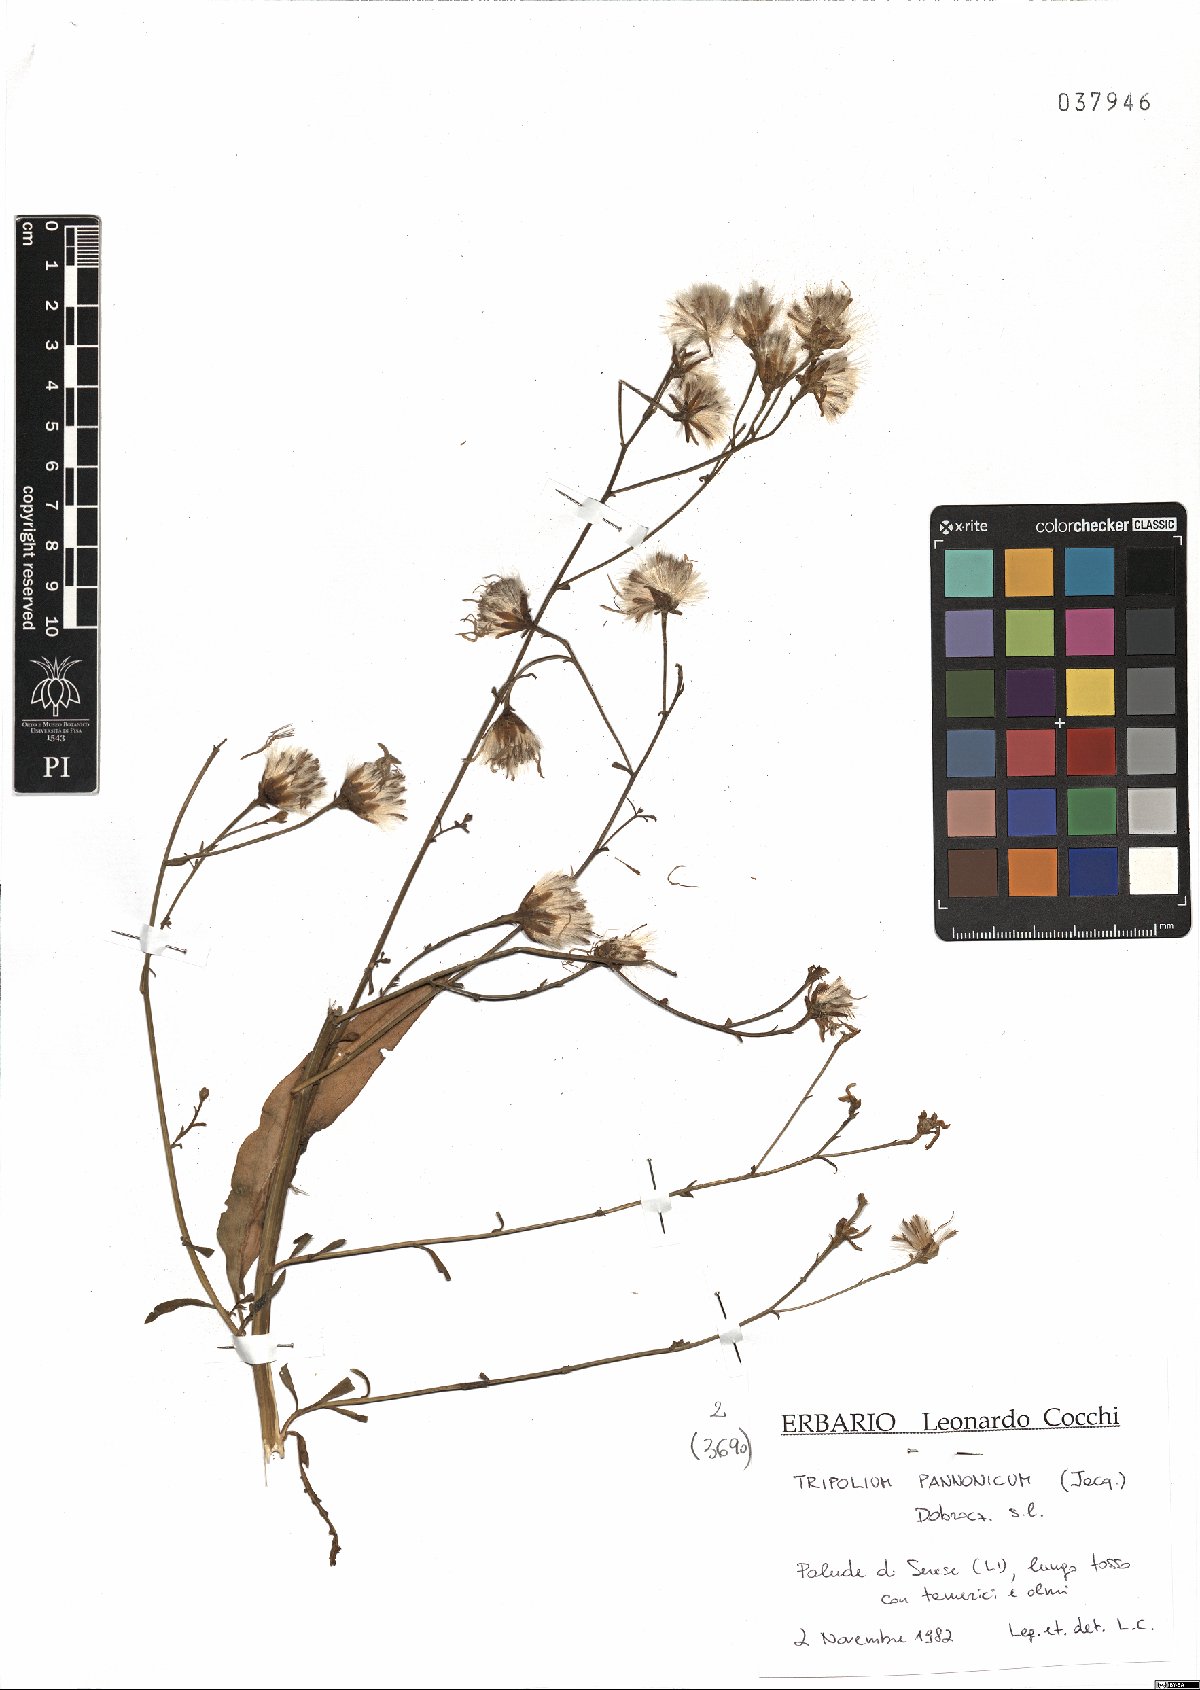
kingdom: Plantae
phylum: Tracheophyta
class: Magnoliopsida
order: Fabales
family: Fabaceae
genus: Trifolium
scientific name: Trifolium pannonicum
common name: Hungarian clover
